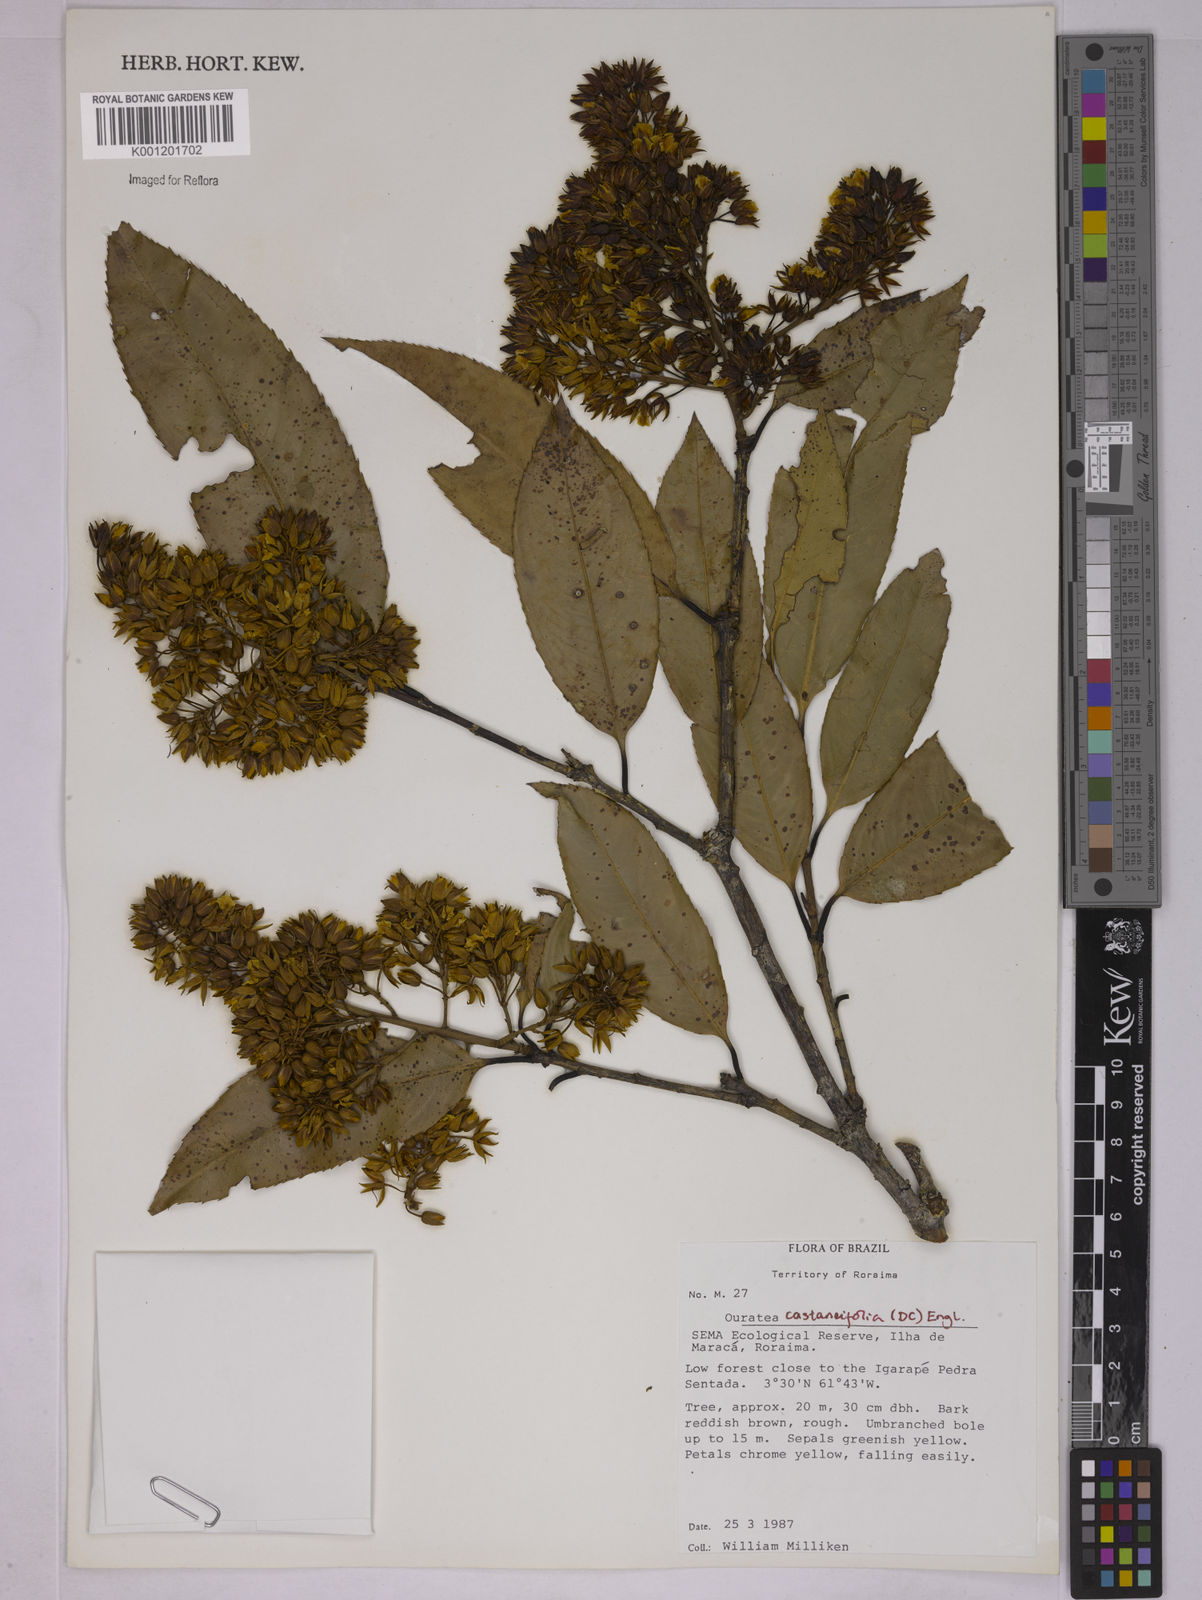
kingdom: Plantae
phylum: Tracheophyta
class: Magnoliopsida
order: Malpighiales
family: Ochnaceae
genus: Ouratea
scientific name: Ouratea castaneifolia
